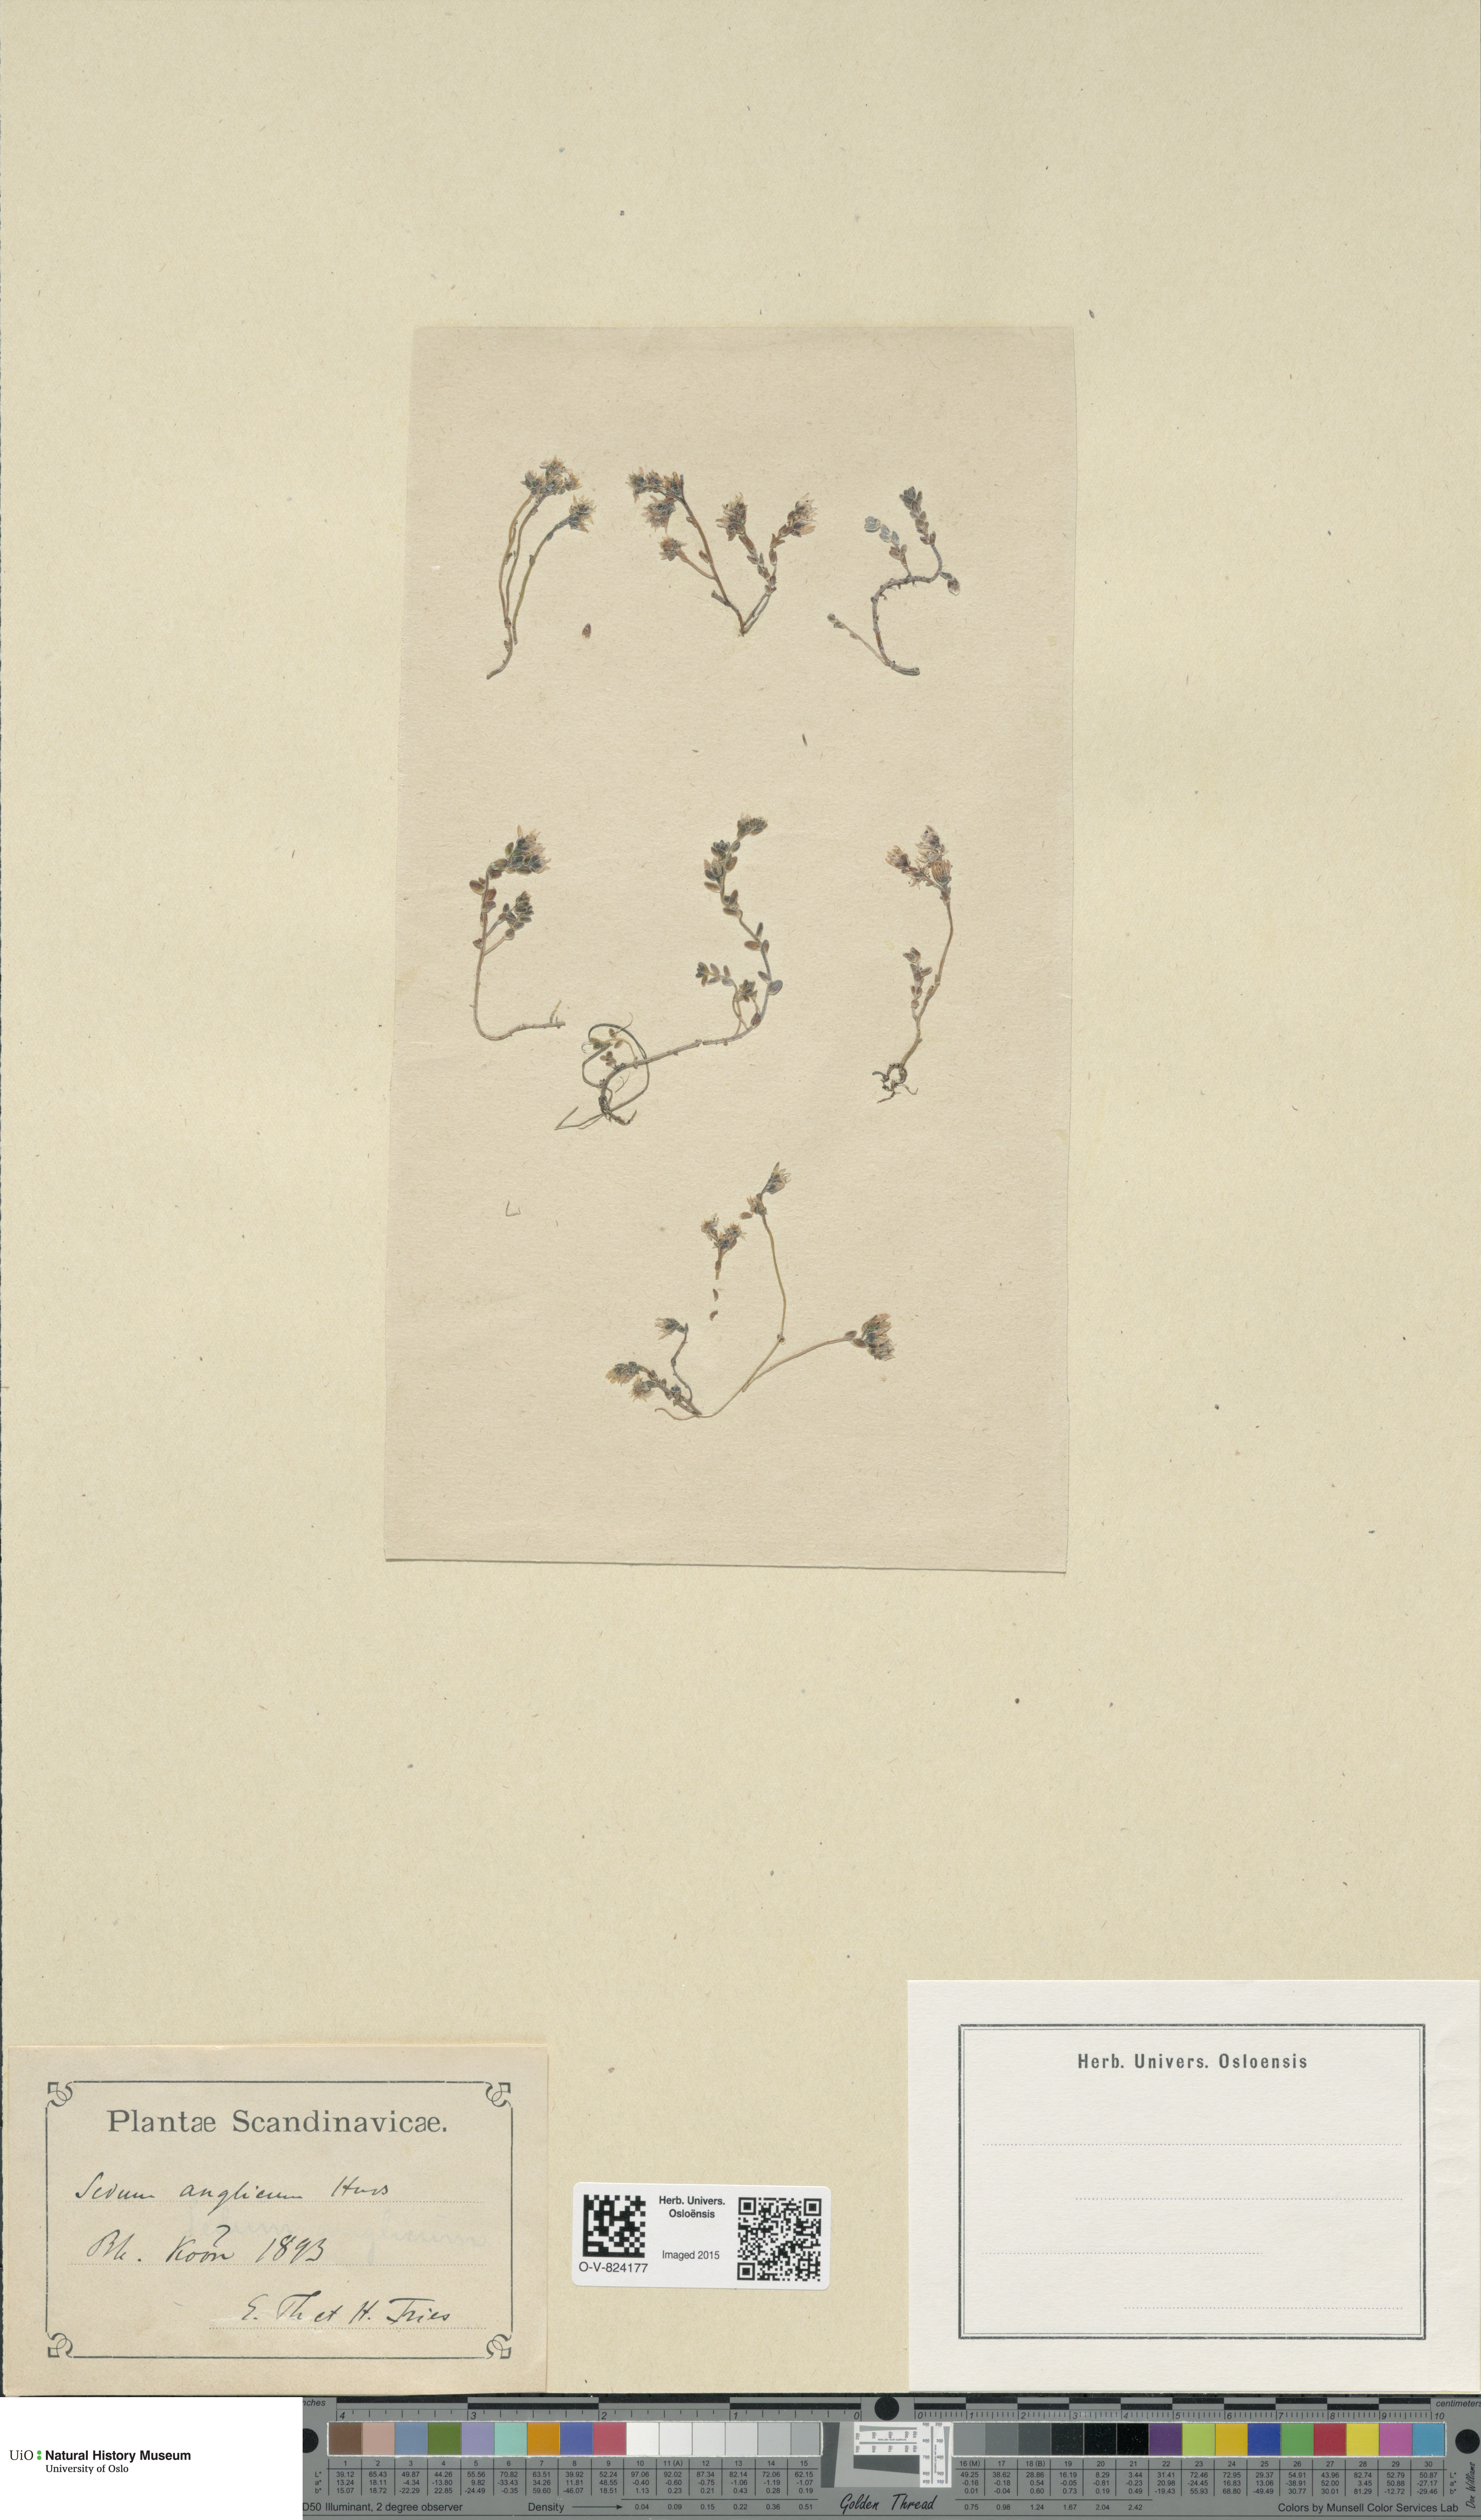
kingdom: Plantae
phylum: Tracheophyta
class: Magnoliopsida
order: Saxifragales
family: Crassulaceae
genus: Sedum
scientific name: Sedum anglicum
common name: English stonecrop
